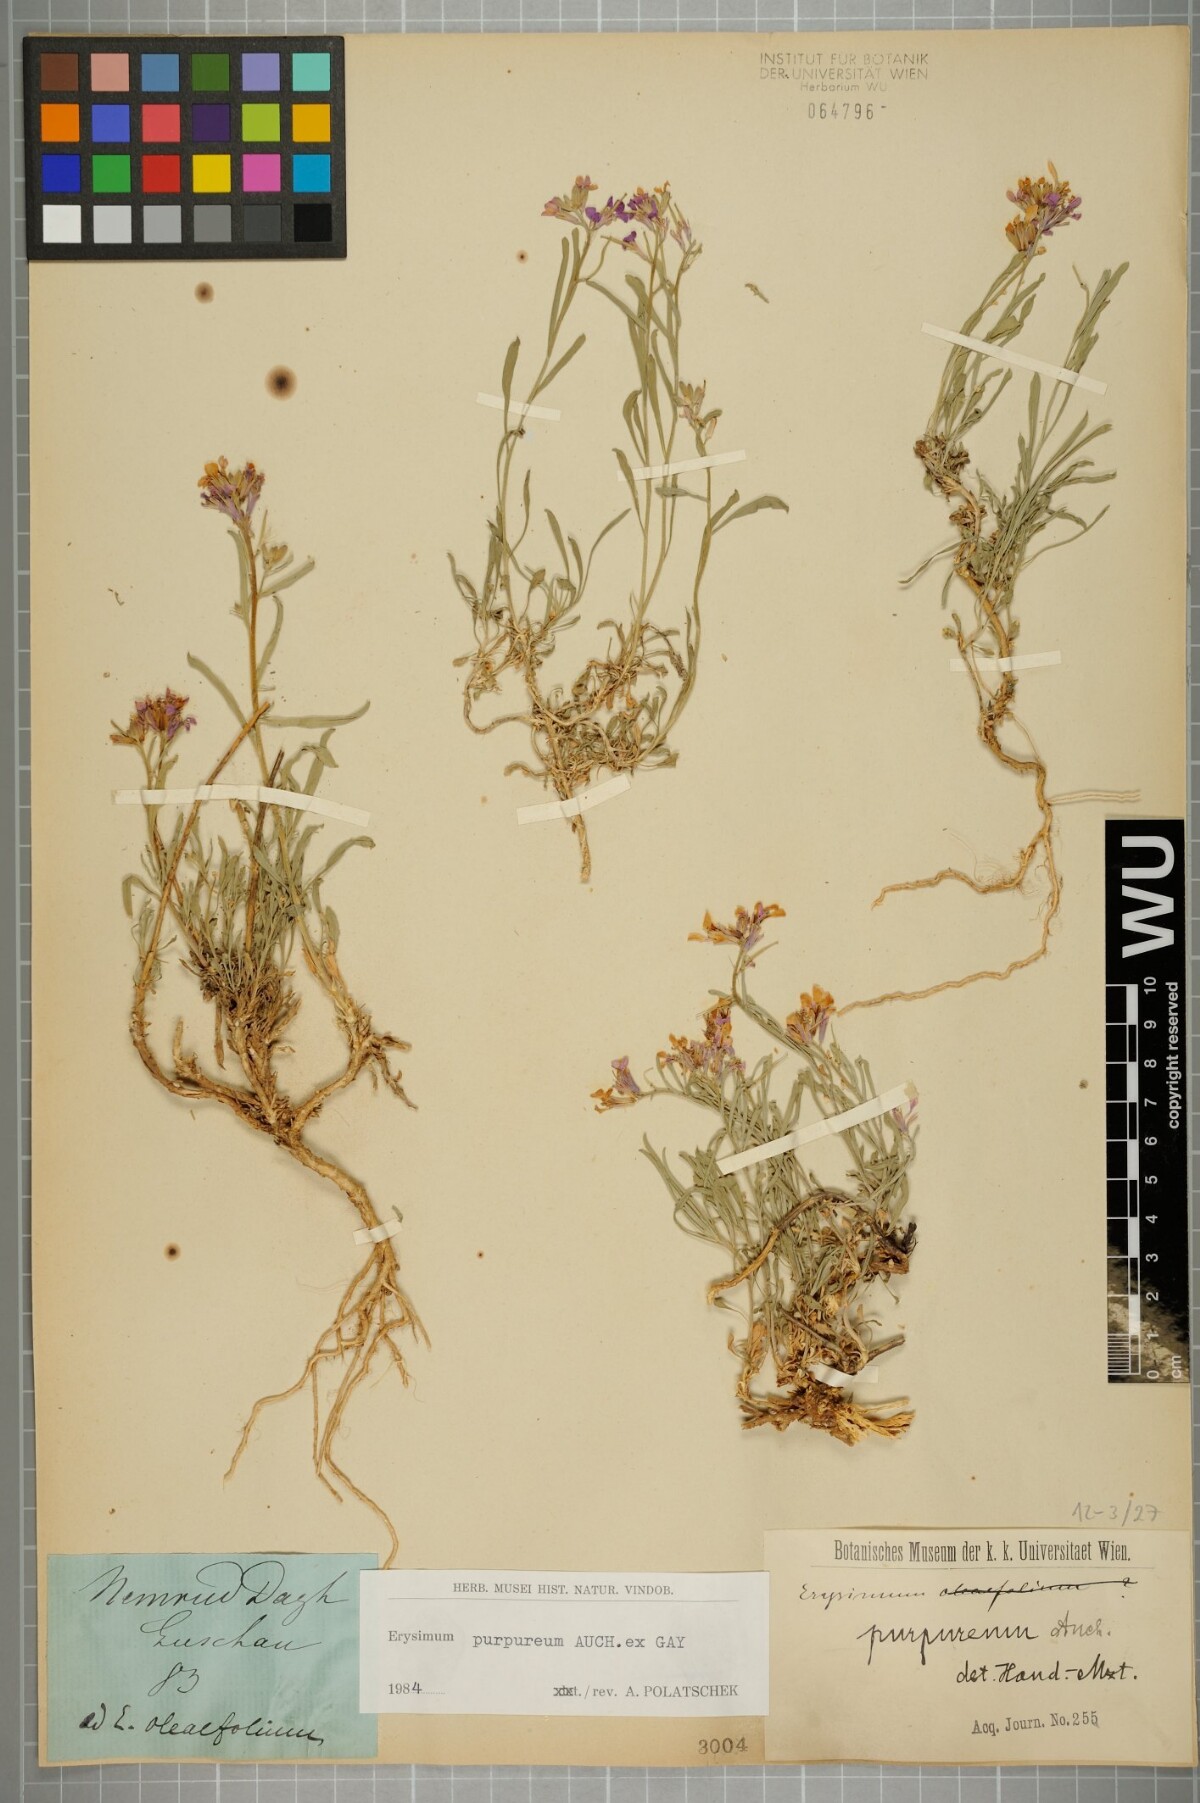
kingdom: Plantae
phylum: Tracheophyta
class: Magnoliopsida
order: Brassicales
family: Brassicaceae
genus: Erysimum
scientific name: Erysimum purpureum
